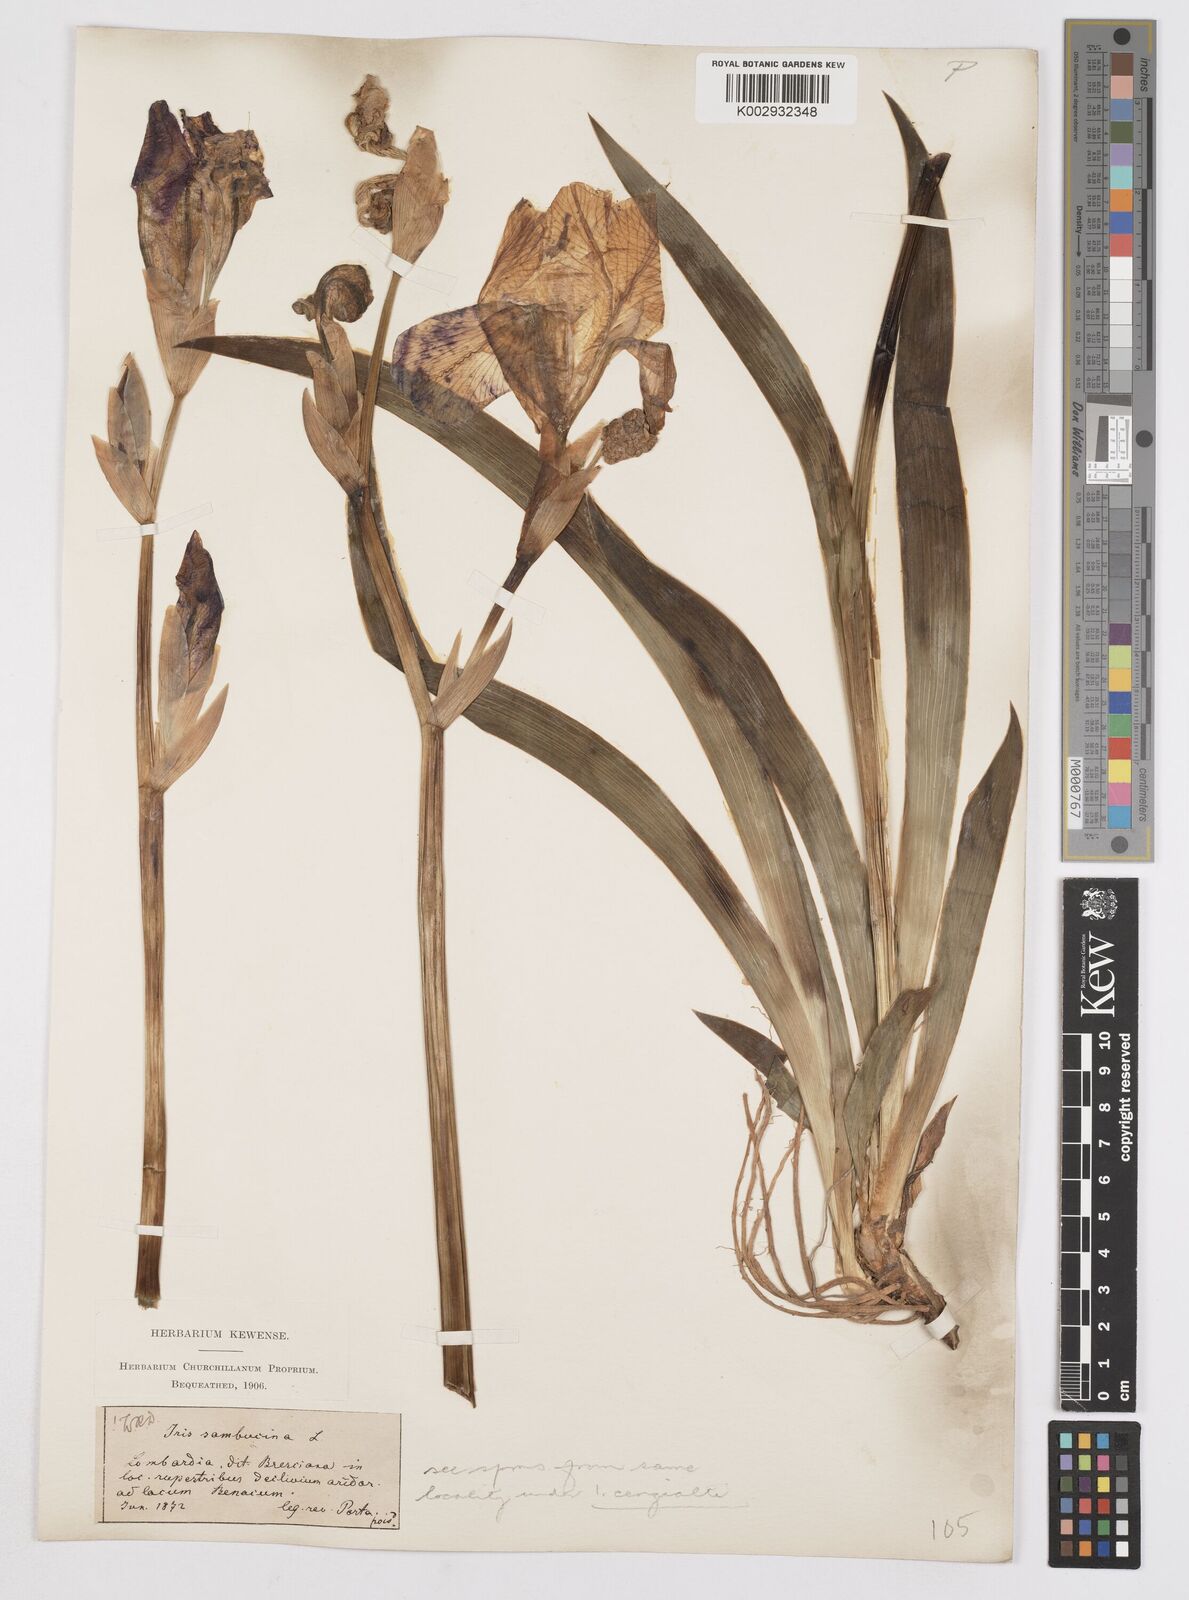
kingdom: Plantae
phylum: Tracheophyta
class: Liliopsida
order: Asparagales
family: Iridaceae
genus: Iris
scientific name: Iris germanica
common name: German iris
